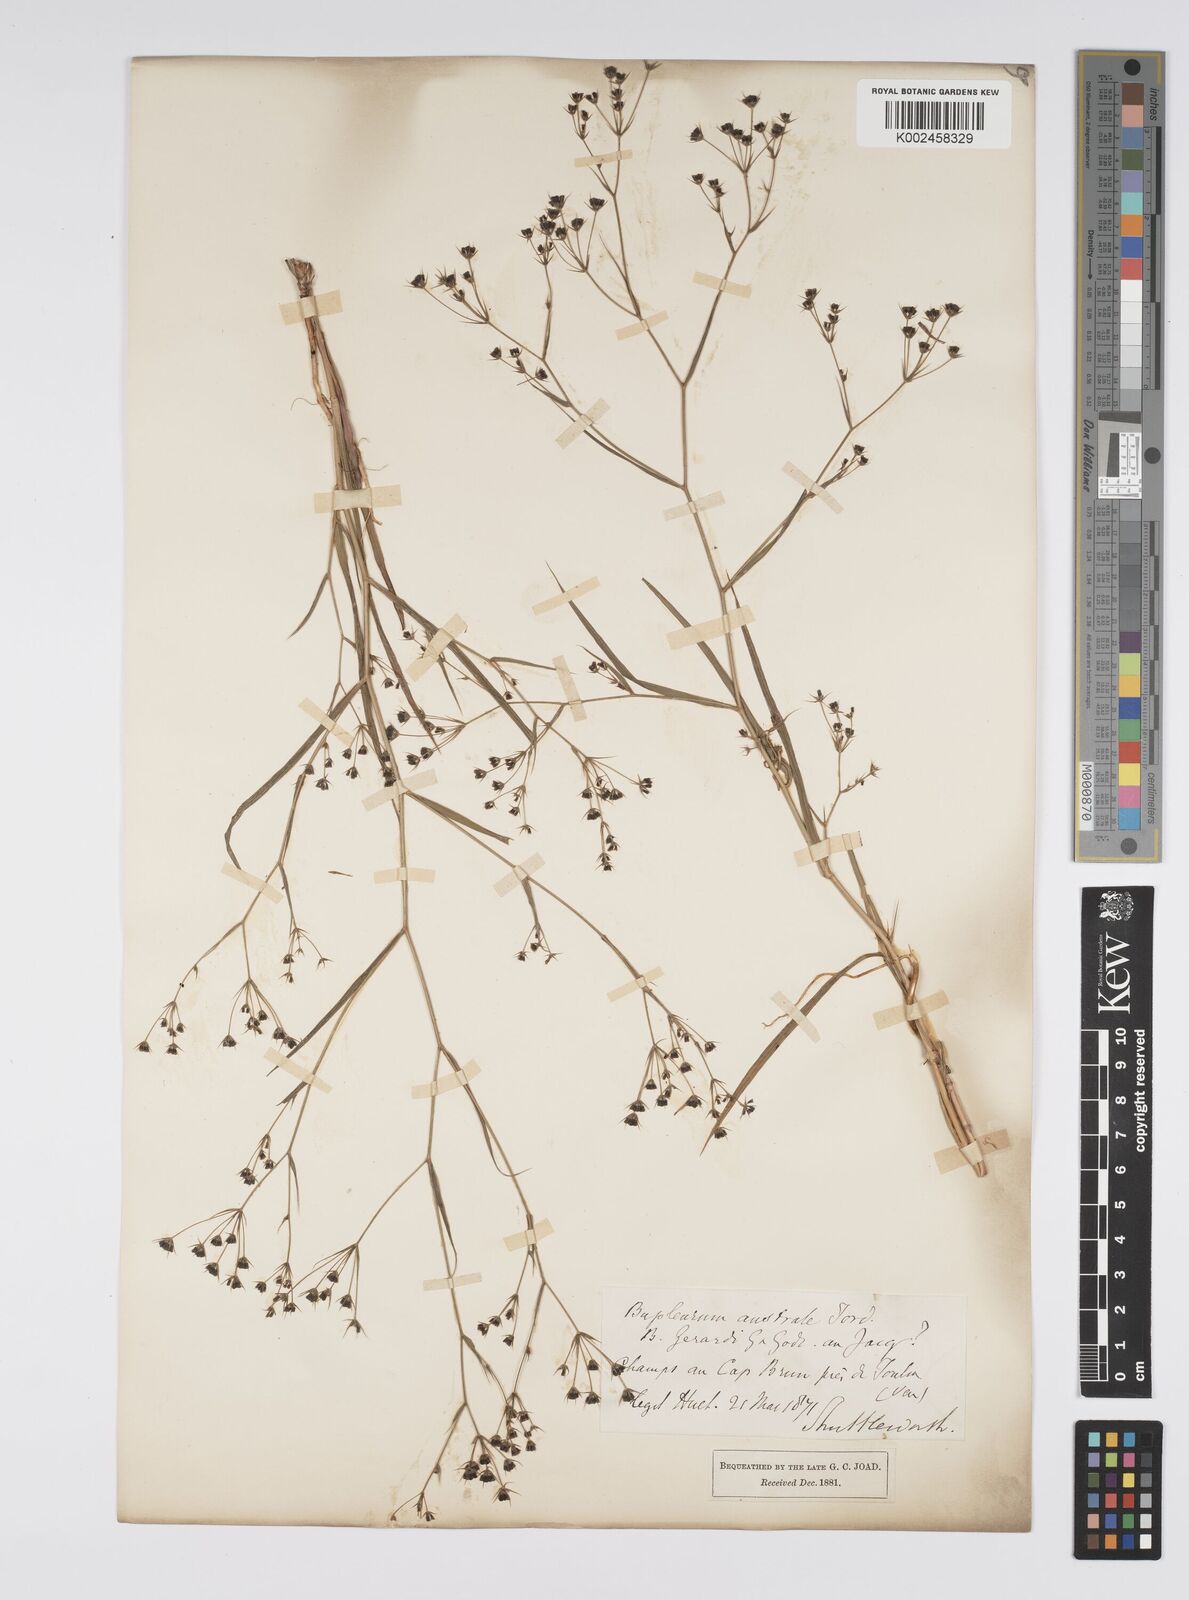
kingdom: Plantae
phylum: Tracheophyta
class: Magnoliopsida
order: Apiales
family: Apiaceae
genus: Bupleurum
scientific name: Bupleurum gerardi
